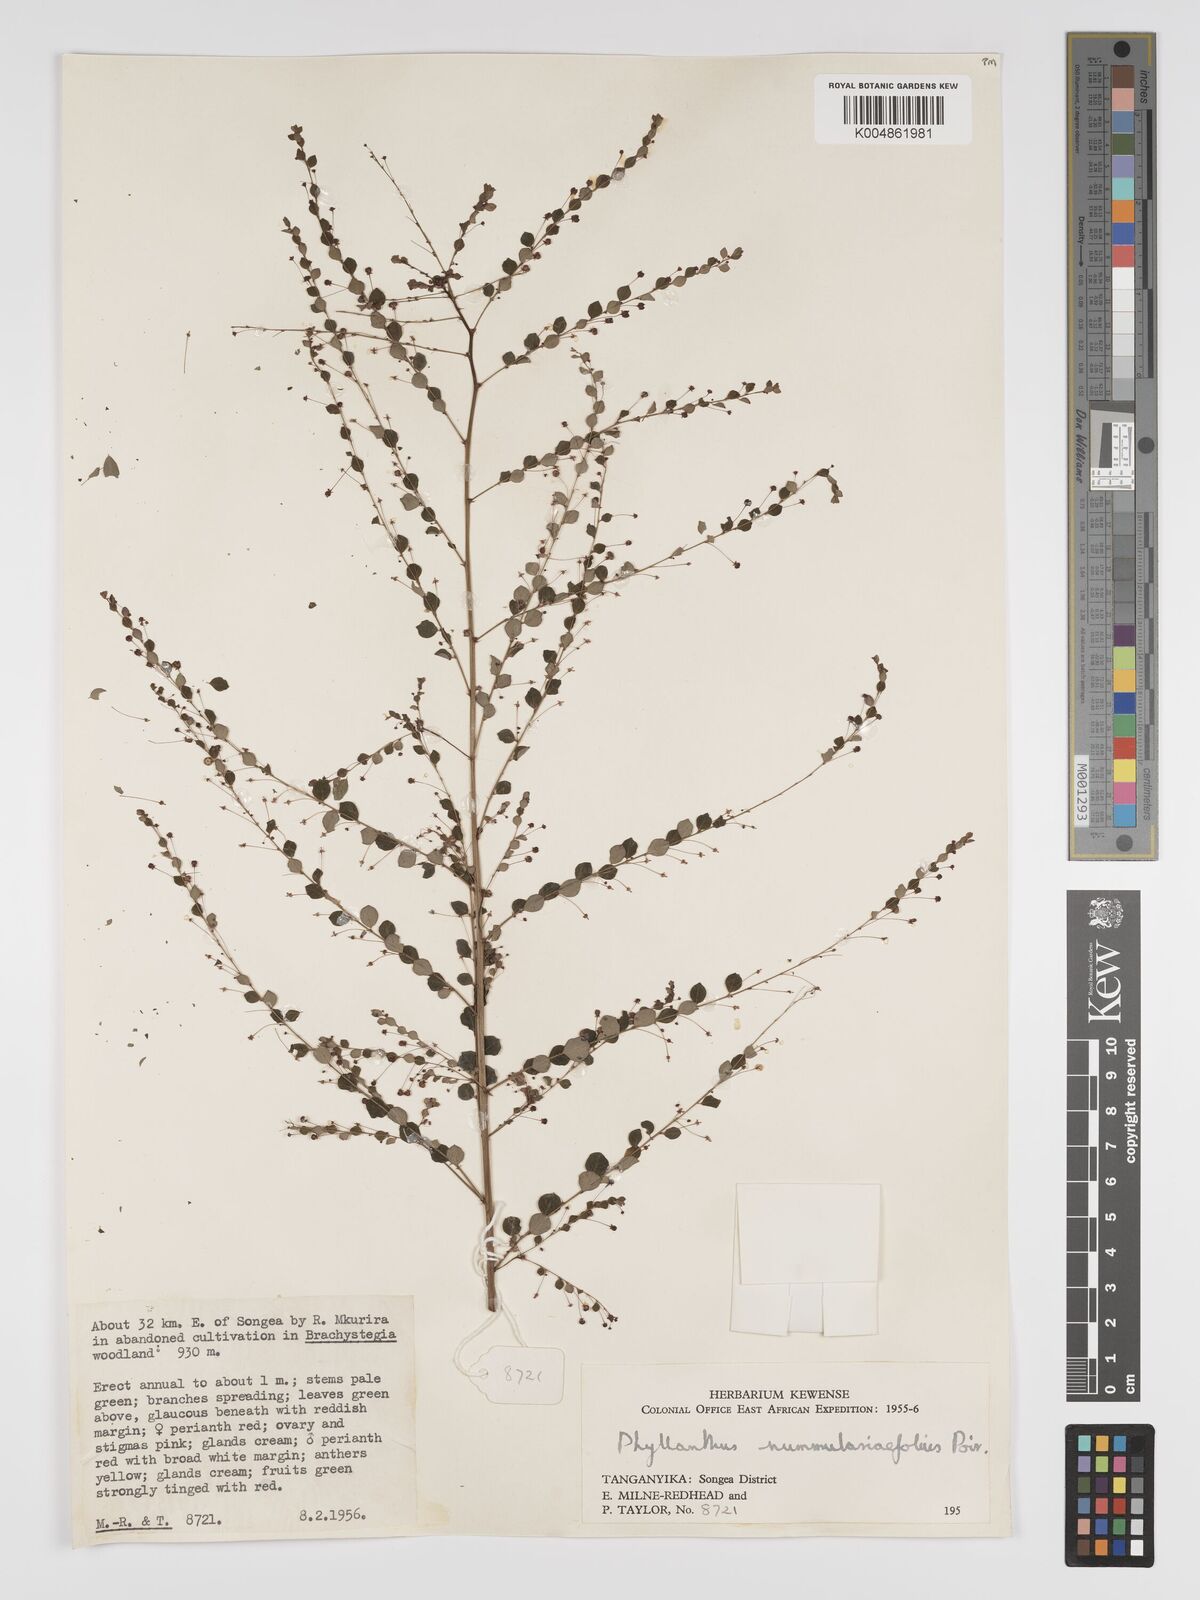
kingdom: Plantae
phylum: Tracheophyta
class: Magnoliopsida
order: Malpighiales
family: Phyllanthaceae
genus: Phyllanthus
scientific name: Phyllanthus nummulariifolius
